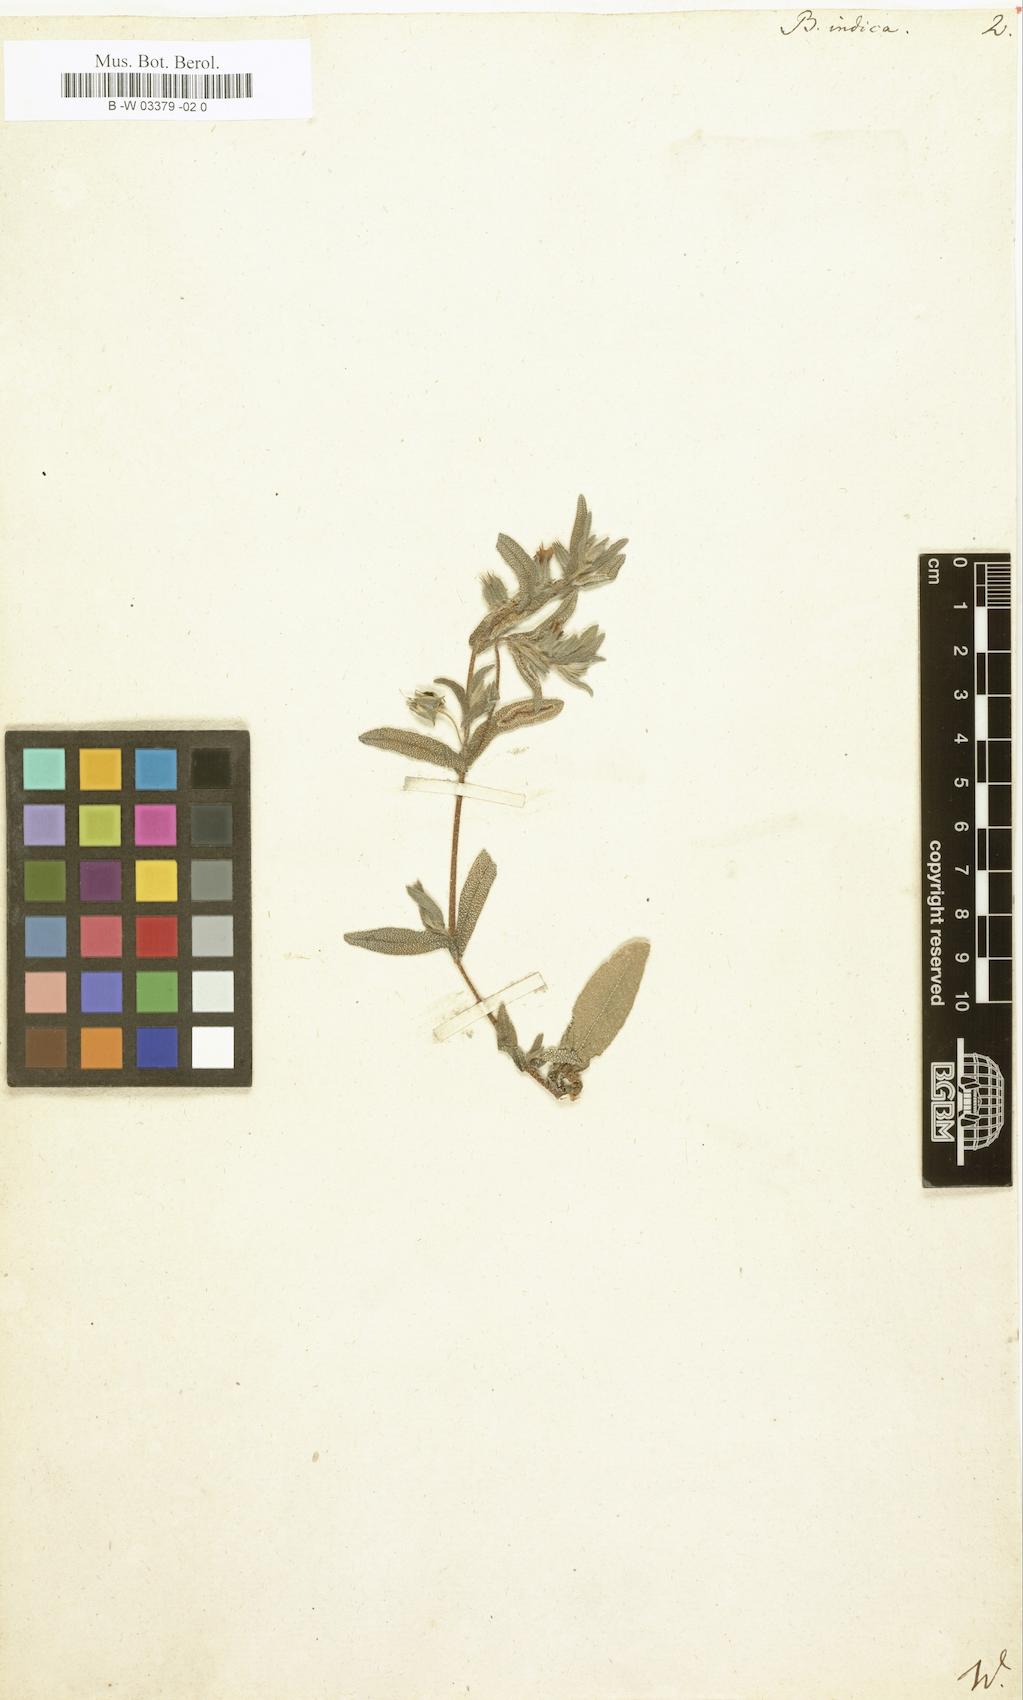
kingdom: Plantae
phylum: Tracheophyta
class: Magnoliopsida
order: Boraginales
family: Boraginaceae
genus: Trichodesma
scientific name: Trichodesma indicum
